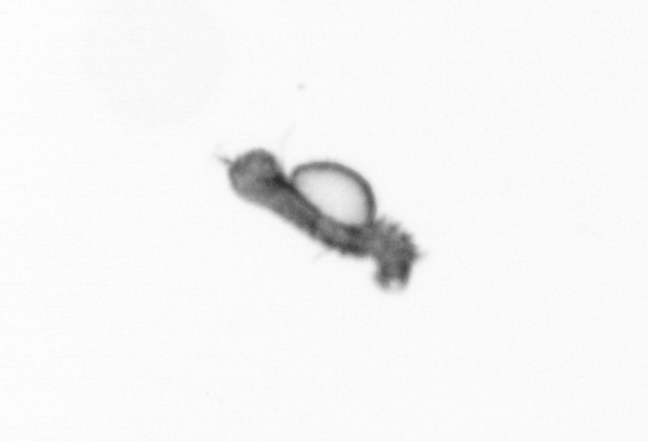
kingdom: Animalia
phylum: Annelida
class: Polychaeta
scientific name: Polychaeta
